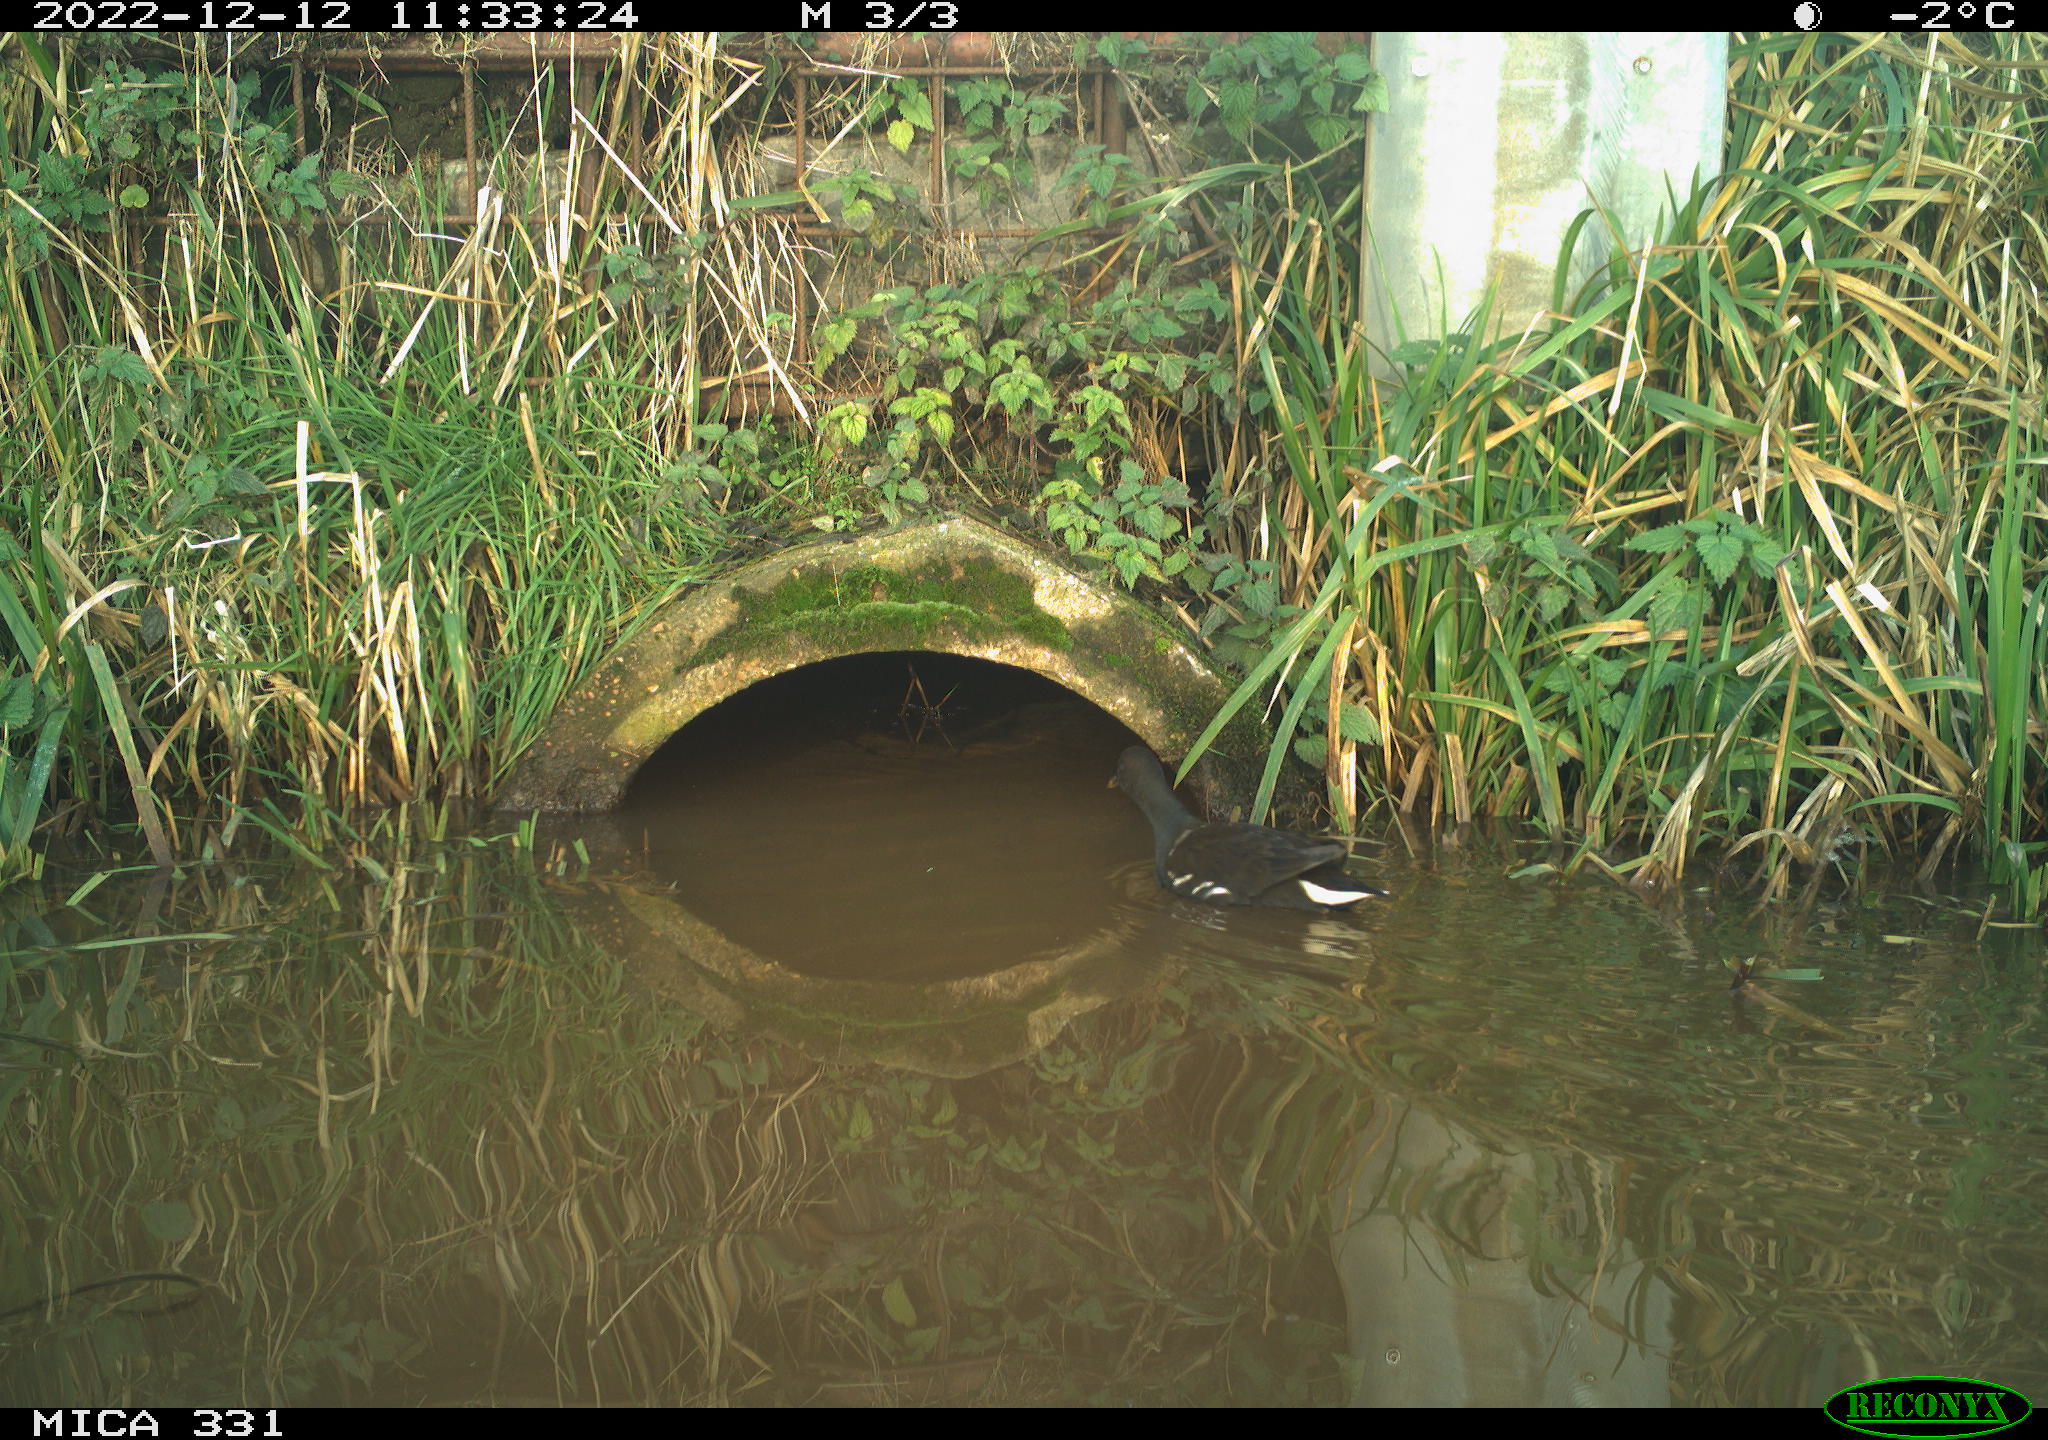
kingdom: Animalia
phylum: Chordata
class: Aves
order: Gruiformes
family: Rallidae
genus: Gallinula
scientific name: Gallinula chloropus
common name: Common moorhen
